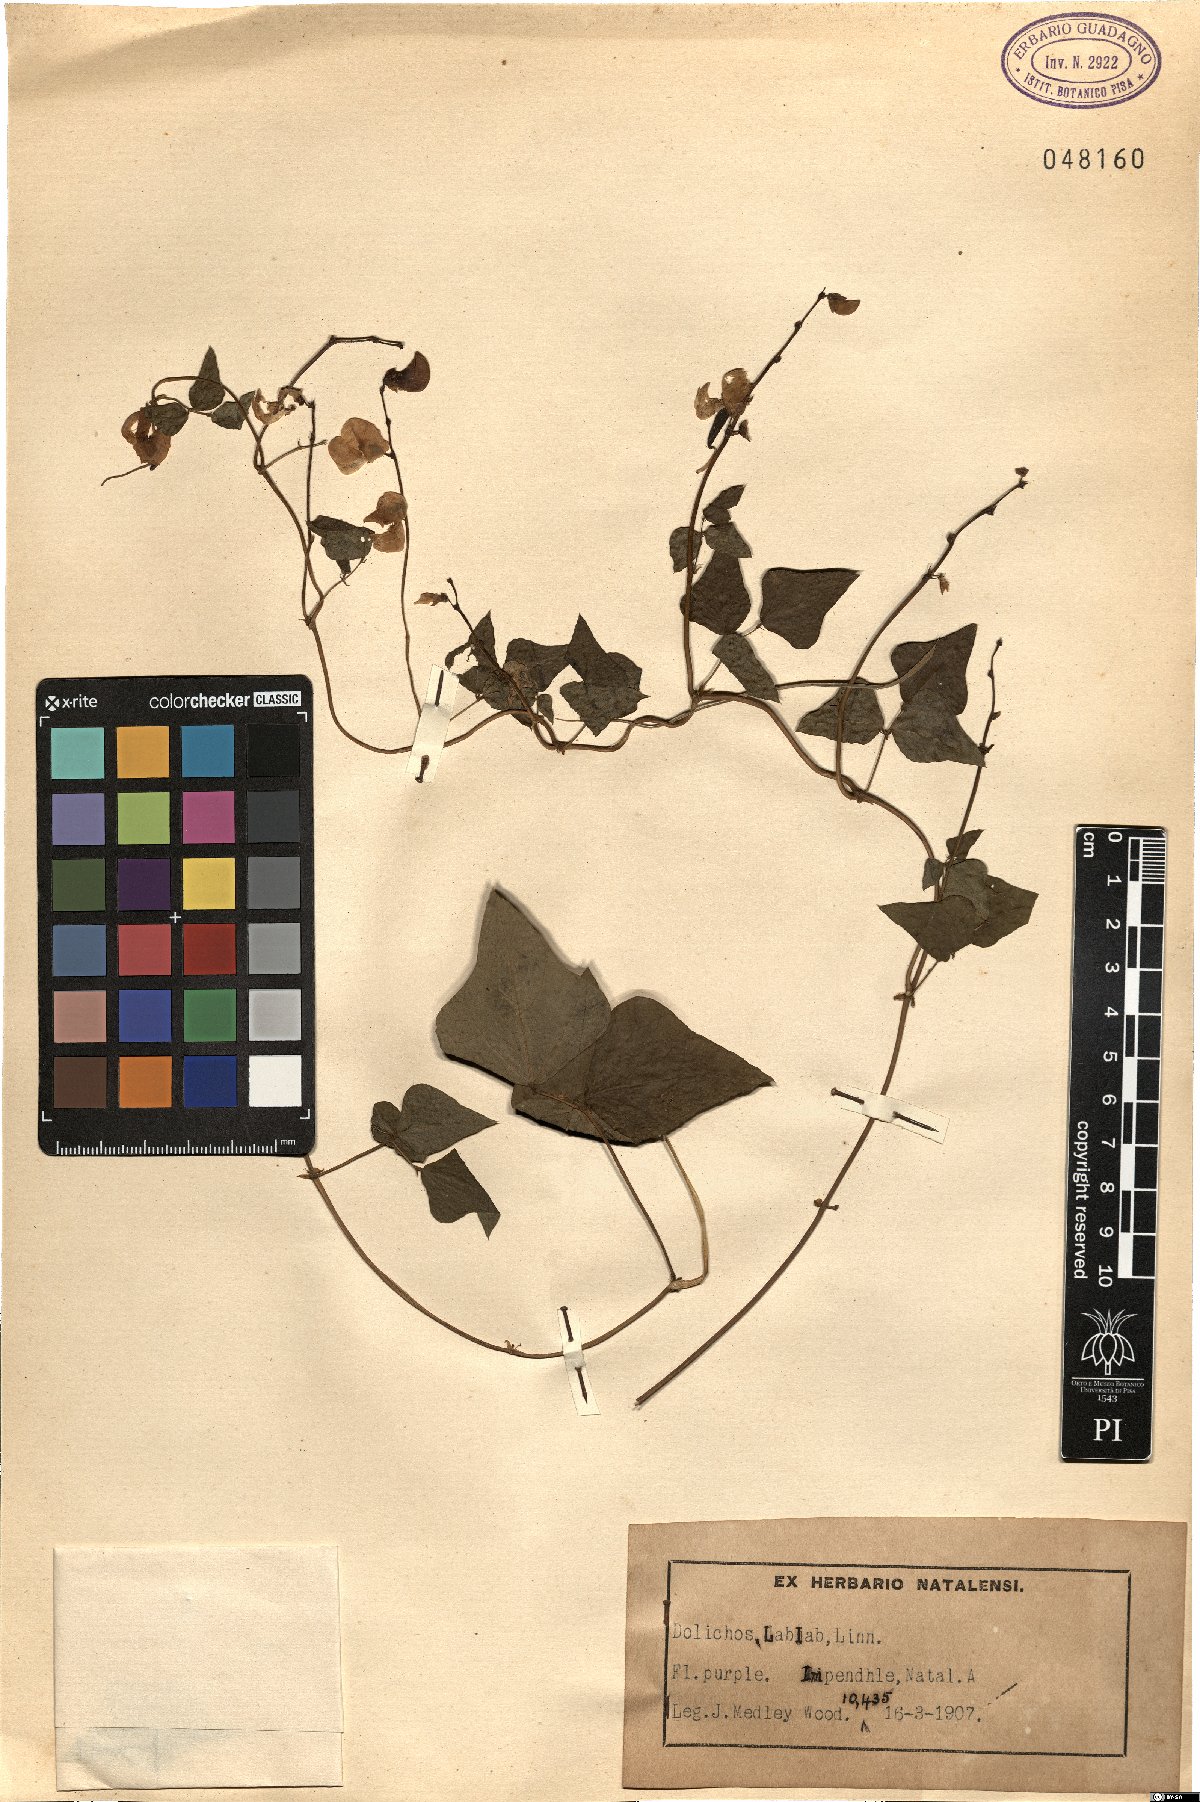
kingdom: Plantae
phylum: Tracheophyta
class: Magnoliopsida
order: Fabales
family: Fabaceae
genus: Lablab
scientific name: Lablab purpureus
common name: Lablab-bean
